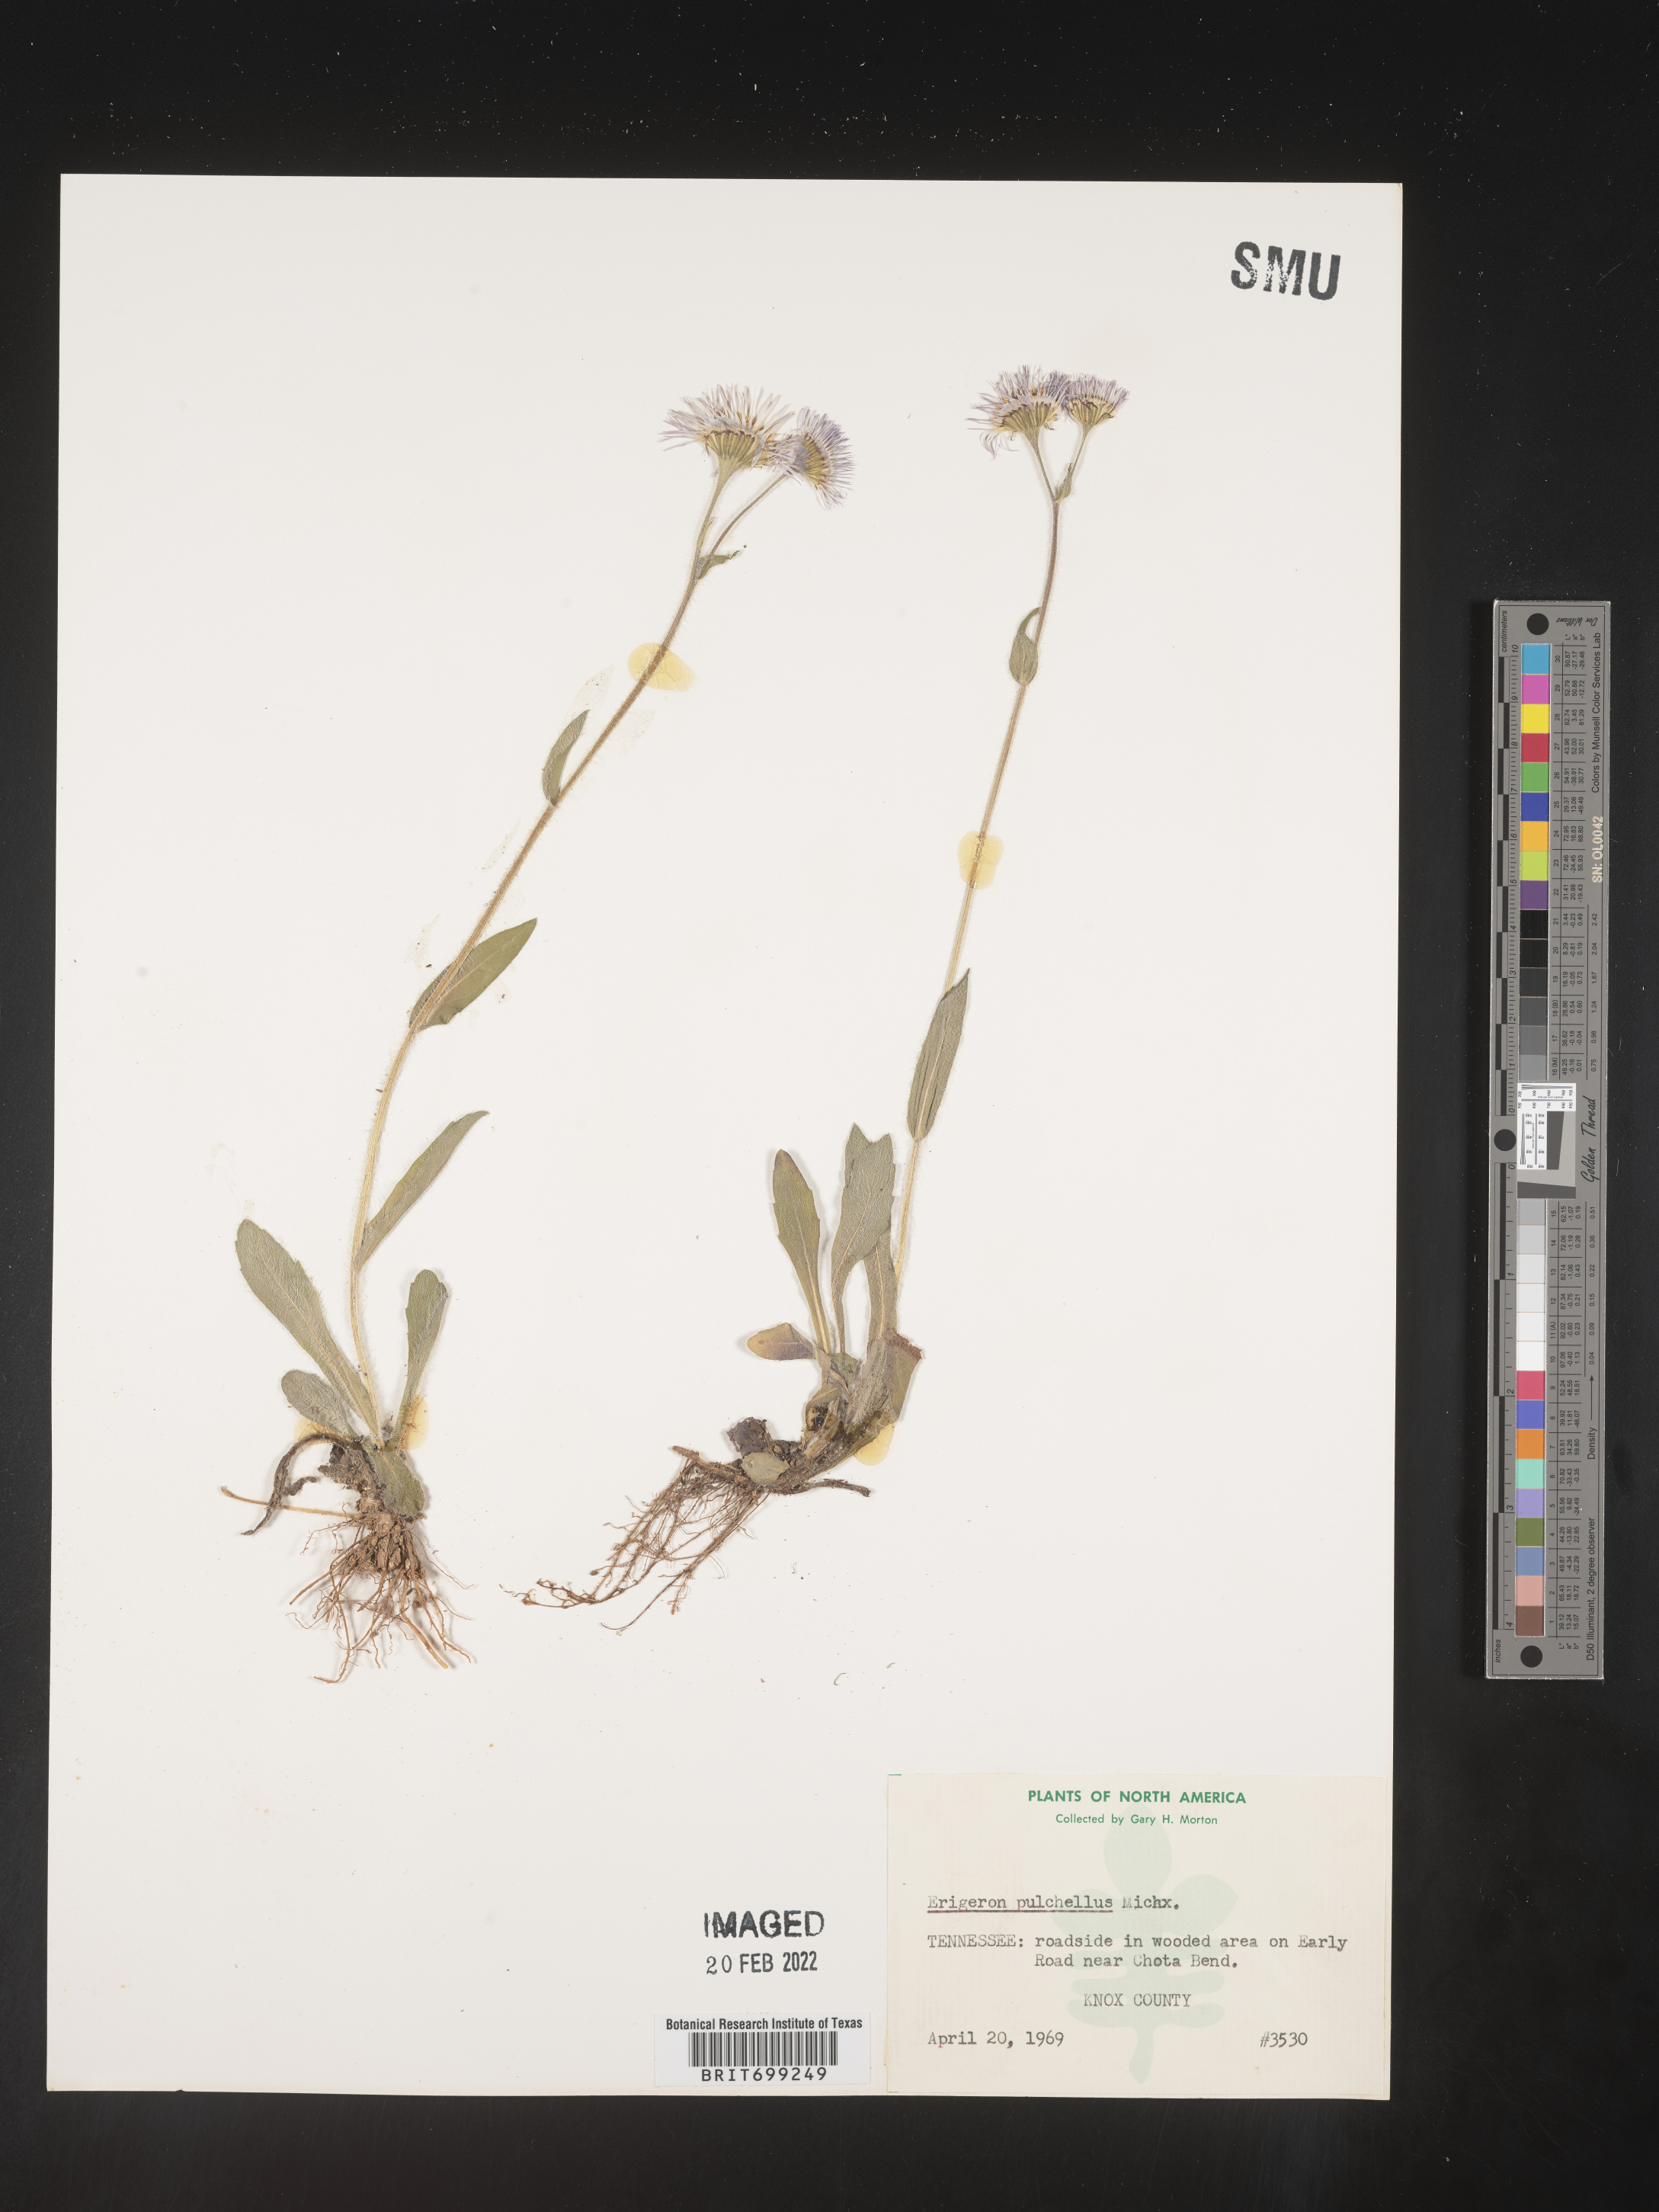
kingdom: Plantae
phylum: Tracheophyta
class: Magnoliopsida
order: Asterales
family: Asteraceae
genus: Erigeron
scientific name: Erigeron pulchellus
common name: Hairy fleabane
